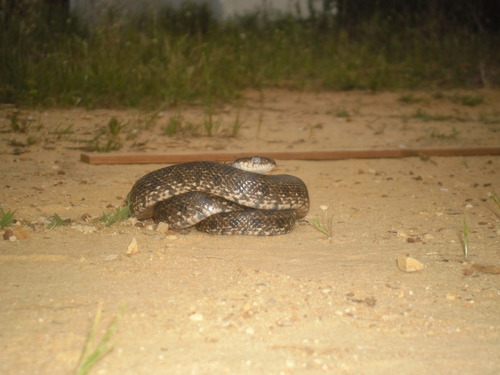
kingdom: Animalia
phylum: Chordata
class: Squamata
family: Colubridae
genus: Hemorrhois
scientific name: Hemorrhois hippocrepis
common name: Horseshoe whip snake
